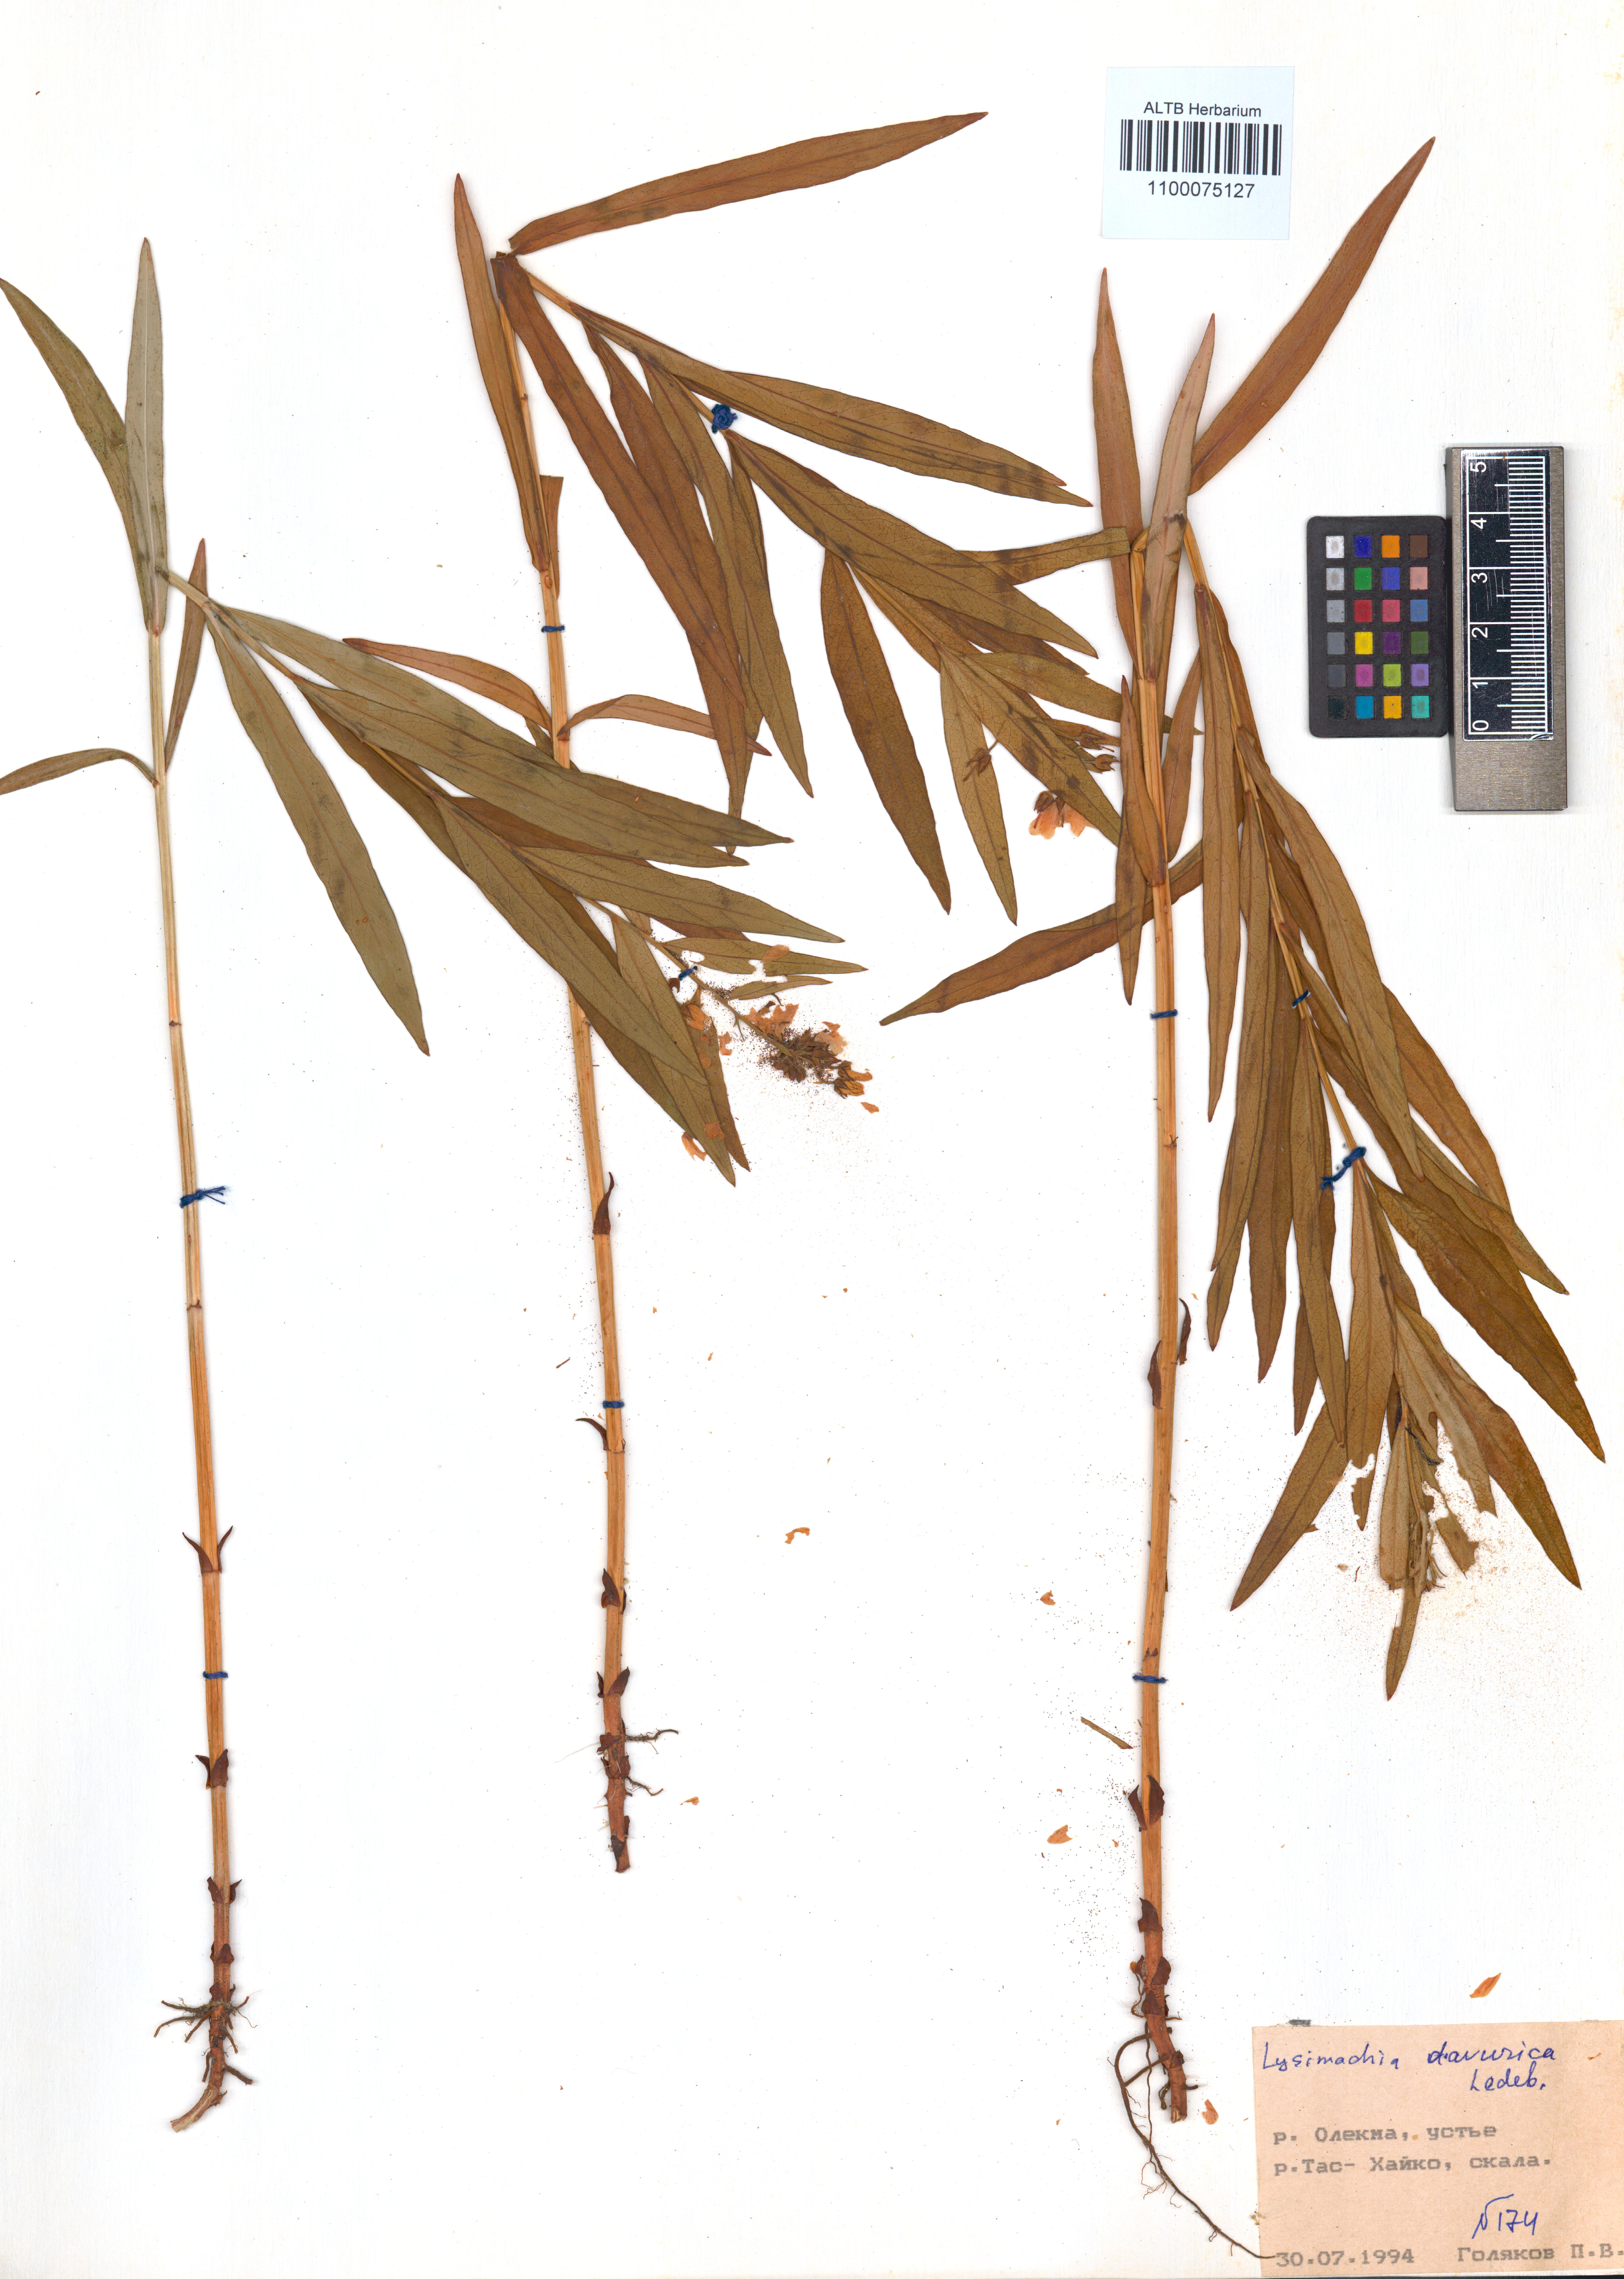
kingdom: Plantae
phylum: Tracheophyta
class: Magnoliopsida
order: Ericales
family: Primulaceae
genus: Lysimachia
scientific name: Lysimachia davurica
